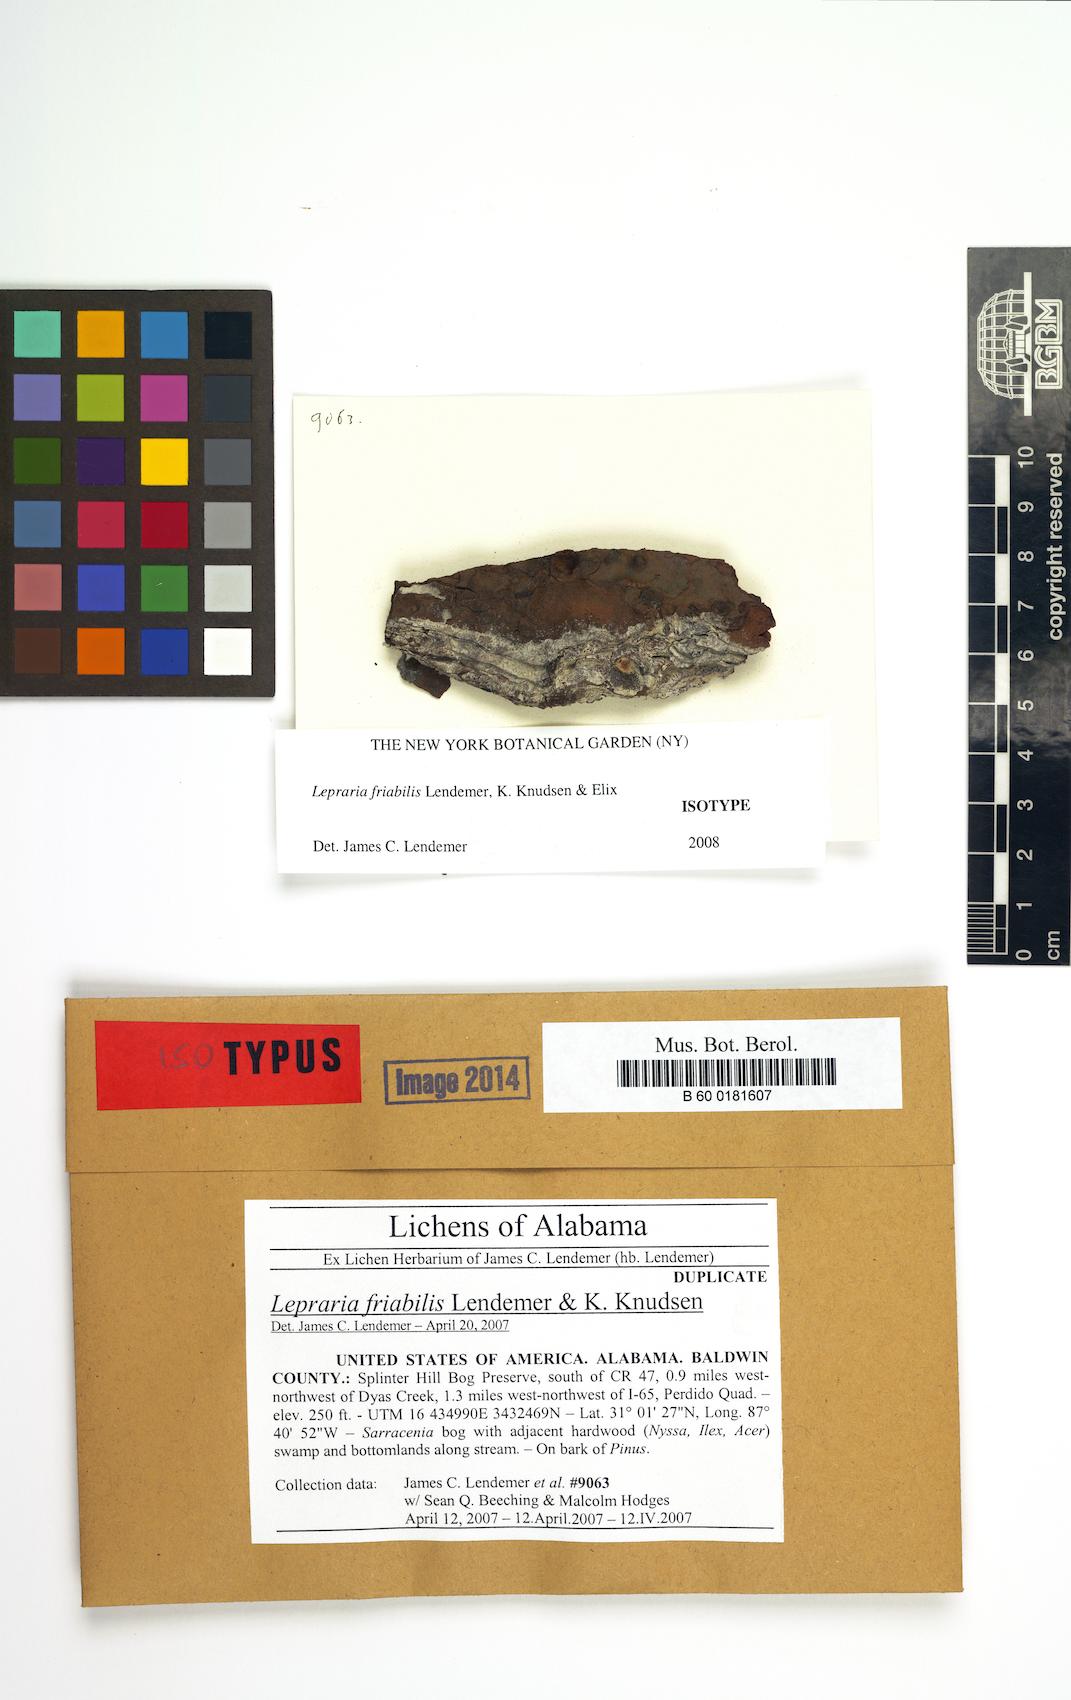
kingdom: Fungi
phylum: Ascomycota
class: Lecanoromycetes
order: Lecanorales
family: Stereocaulaceae
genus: Lepraria
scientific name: Lepraria friabilis
